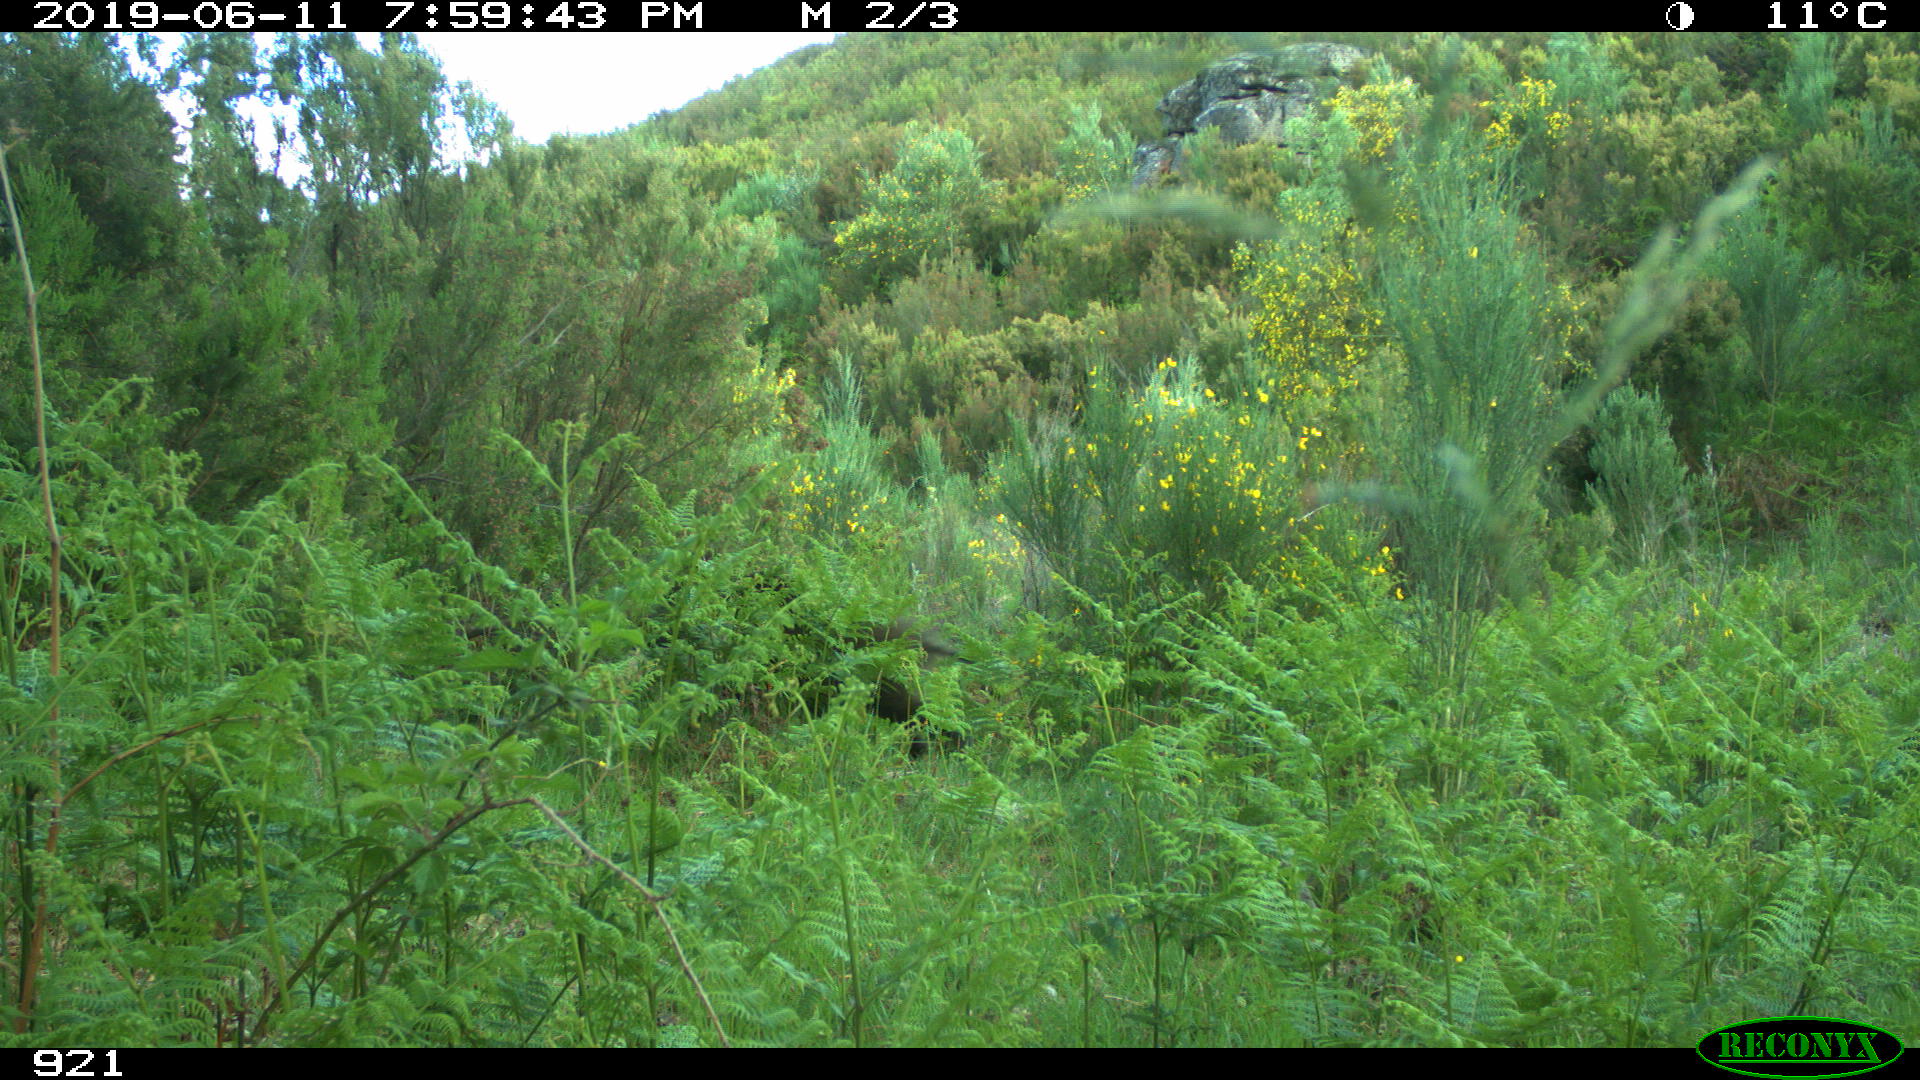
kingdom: Animalia
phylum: Chordata
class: Mammalia
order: Artiodactyla
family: Suidae
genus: Sus
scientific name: Sus scrofa
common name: Wild boar
